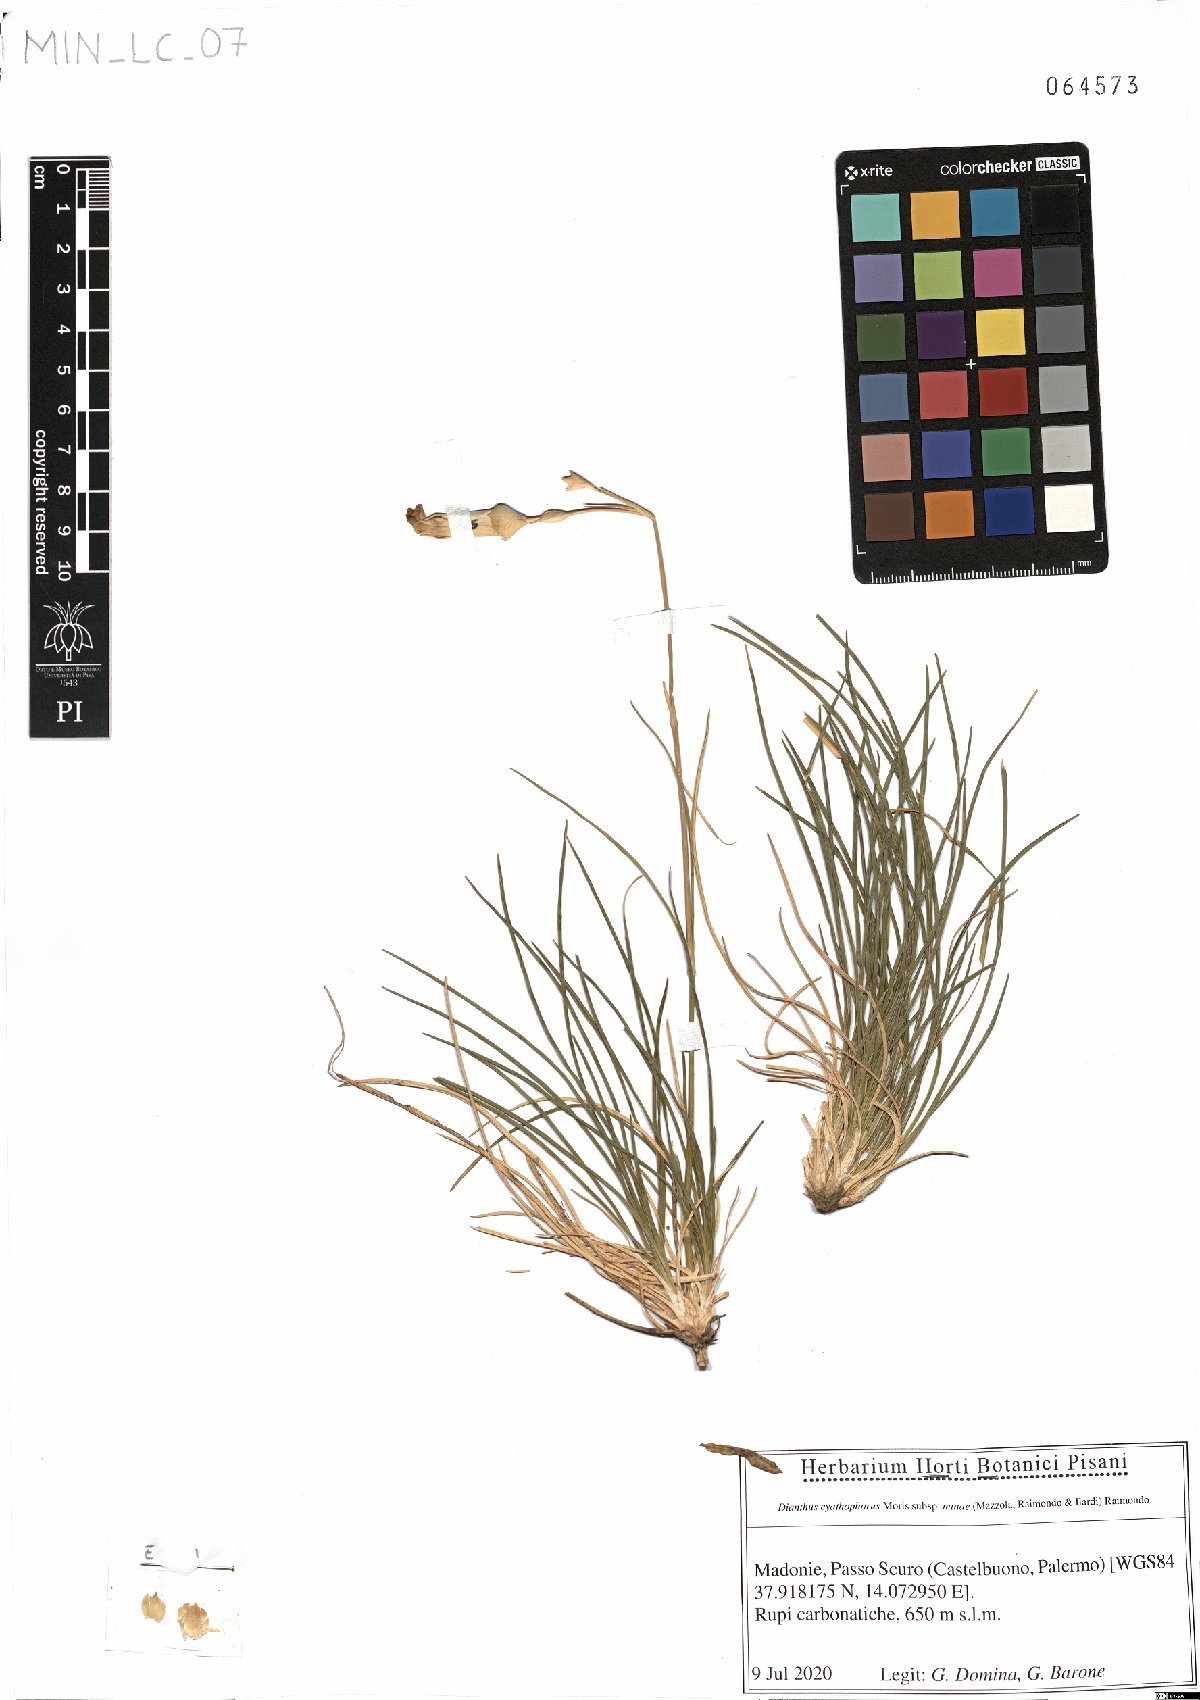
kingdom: Plantae
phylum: Tracheophyta
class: Magnoliopsida
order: Caryophyllales
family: Caryophyllaceae
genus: Dianthus
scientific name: Dianthus siculus
